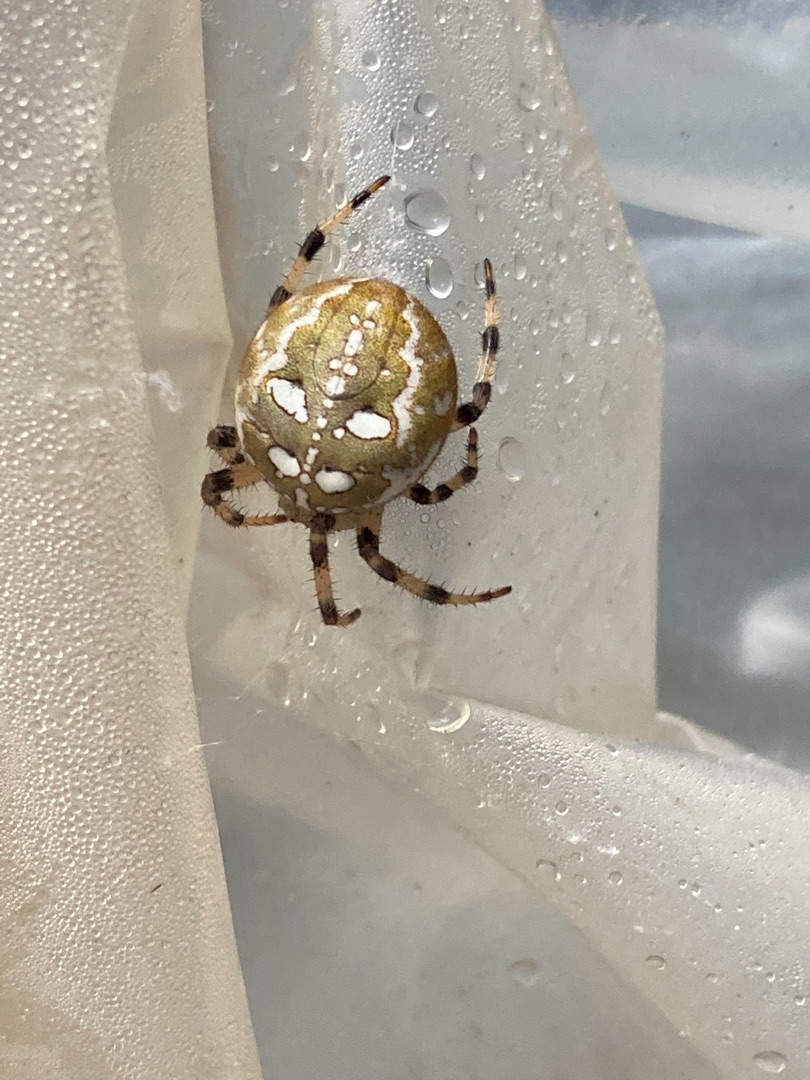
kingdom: Animalia
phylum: Arthropoda
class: Arachnida
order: Araneae
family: Araneidae
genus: Araneus
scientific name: Araneus quadratus
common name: Kvadratedderkop
